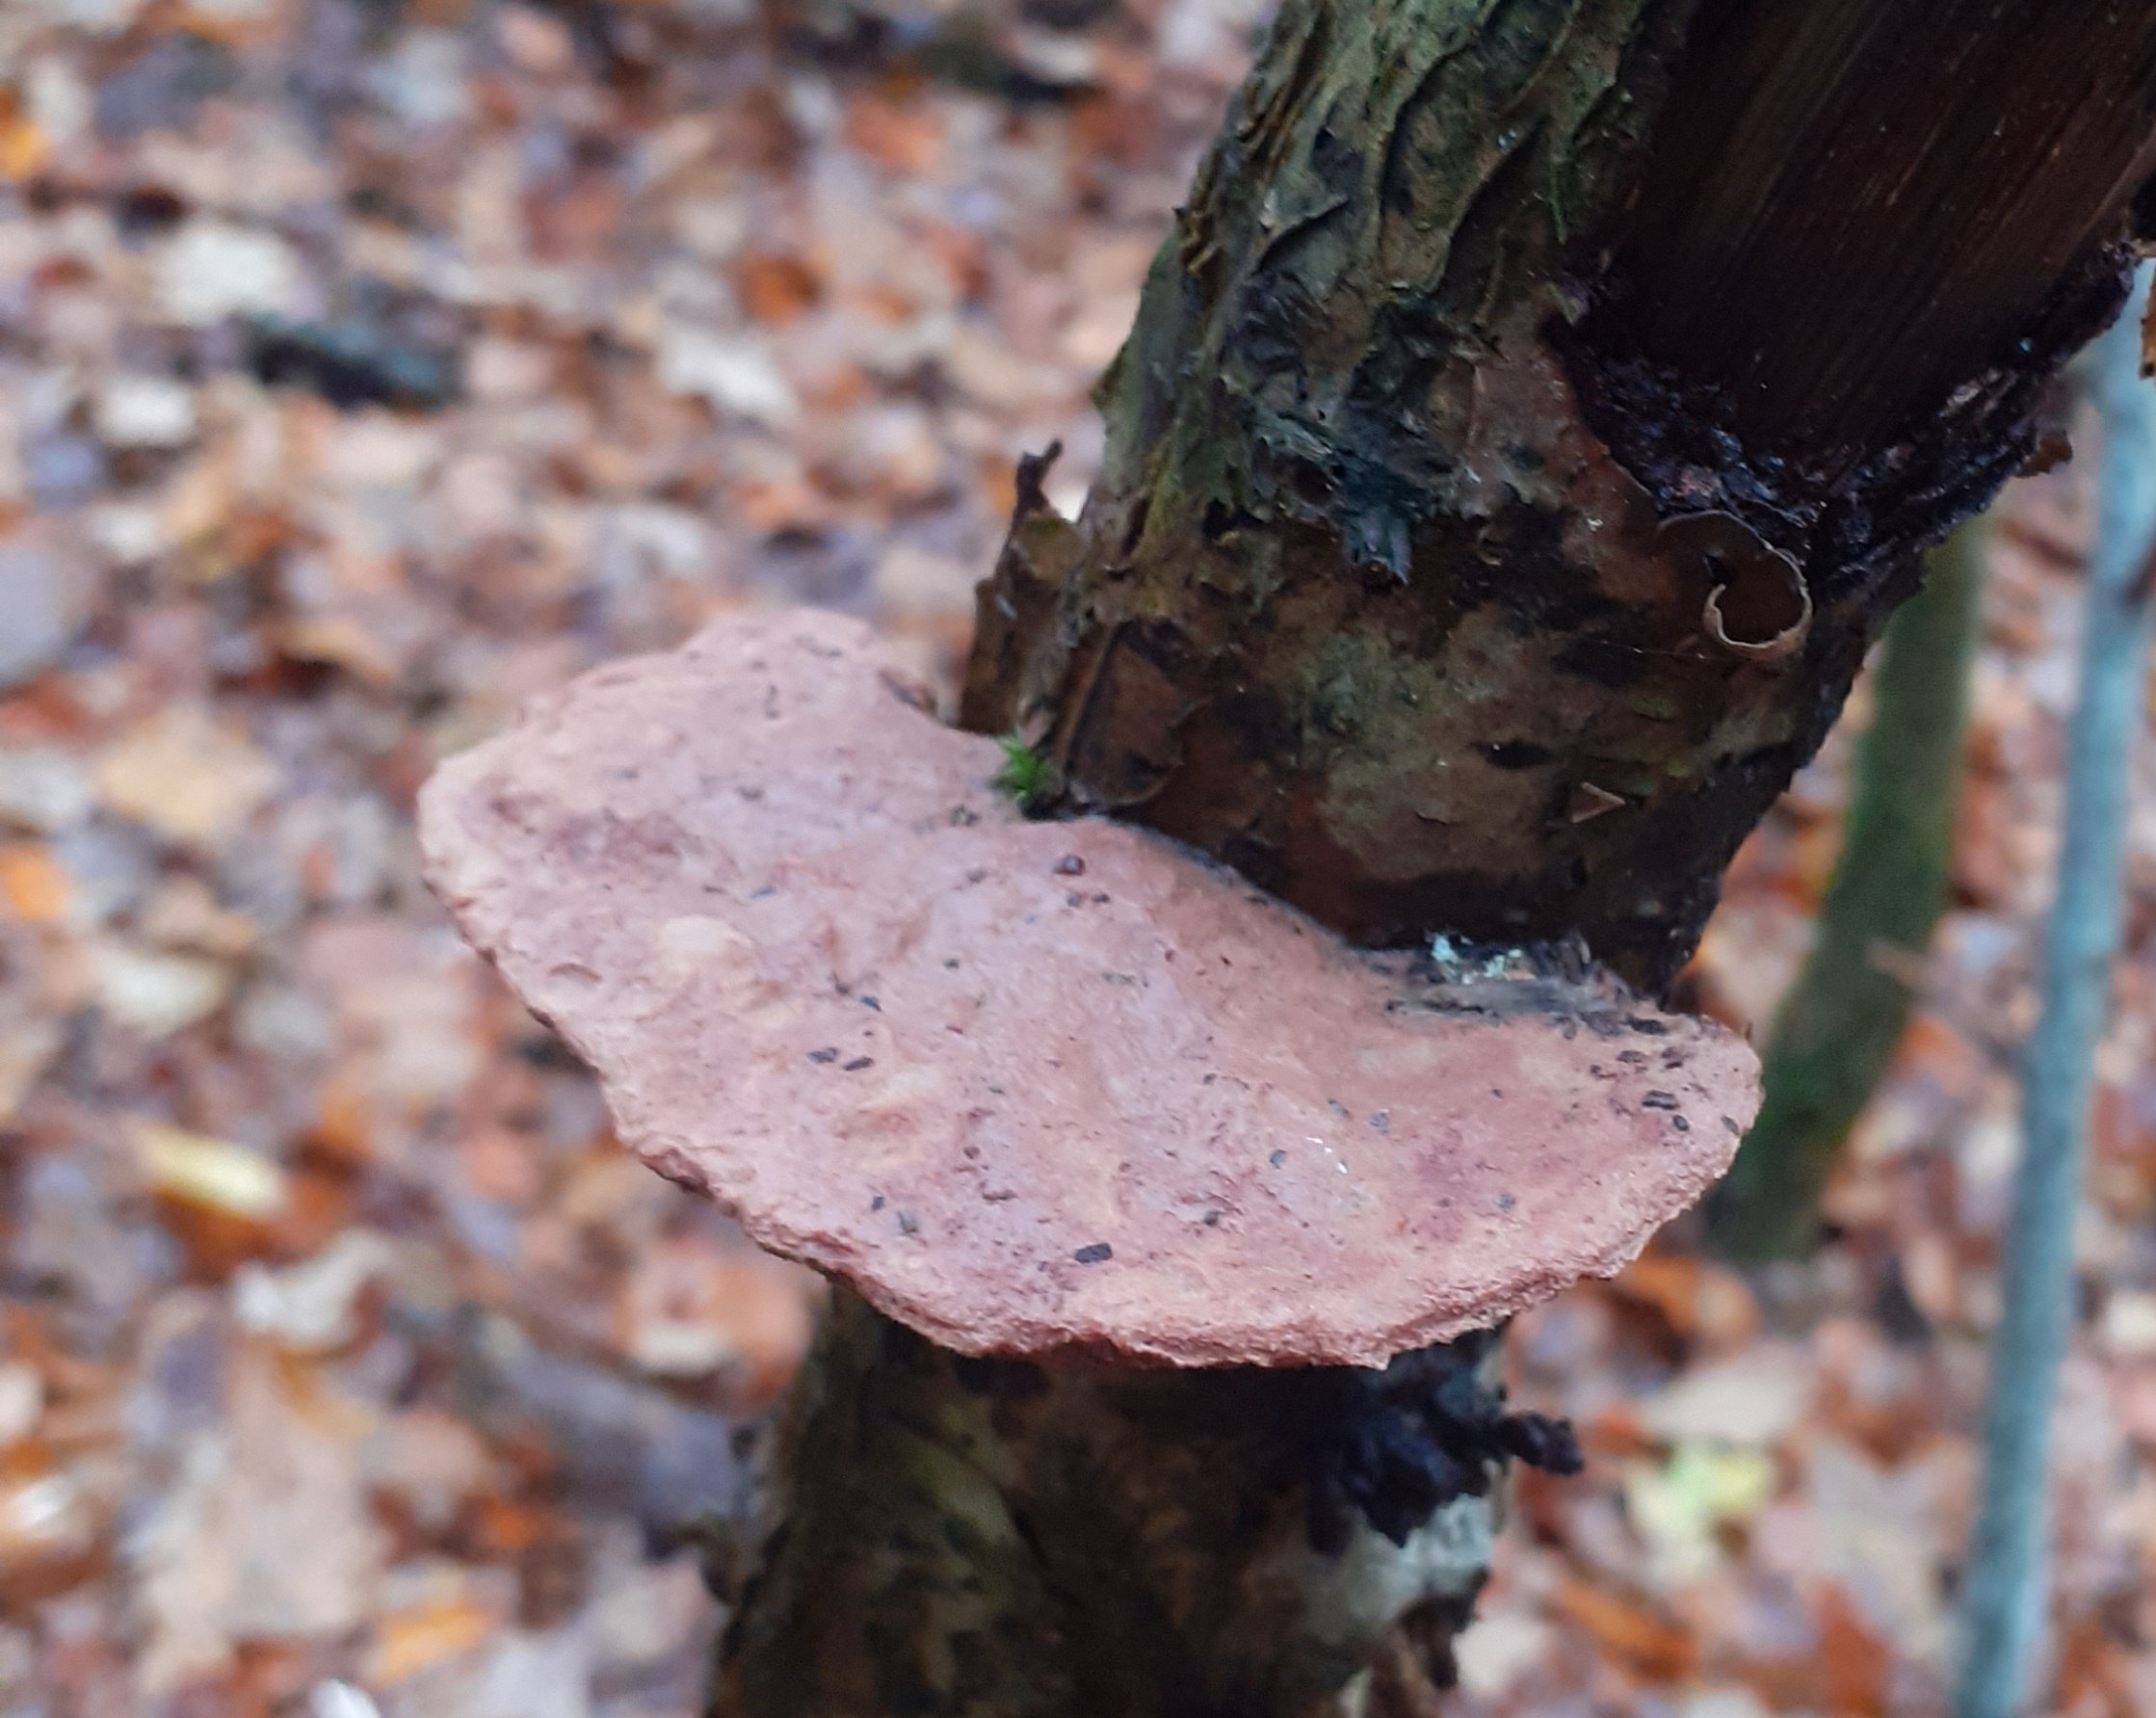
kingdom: Fungi
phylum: Basidiomycota
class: Agaricomycetes
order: Polyporales
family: Phanerochaetaceae
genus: Hapalopilus
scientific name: Hapalopilus rutilans
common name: rødlig okkerporesvamp
